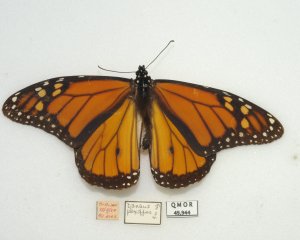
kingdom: Animalia
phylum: Arthropoda
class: Insecta
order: Lepidoptera
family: Nymphalidae
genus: Danaus
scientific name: Danaus plexippus
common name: Monarch
